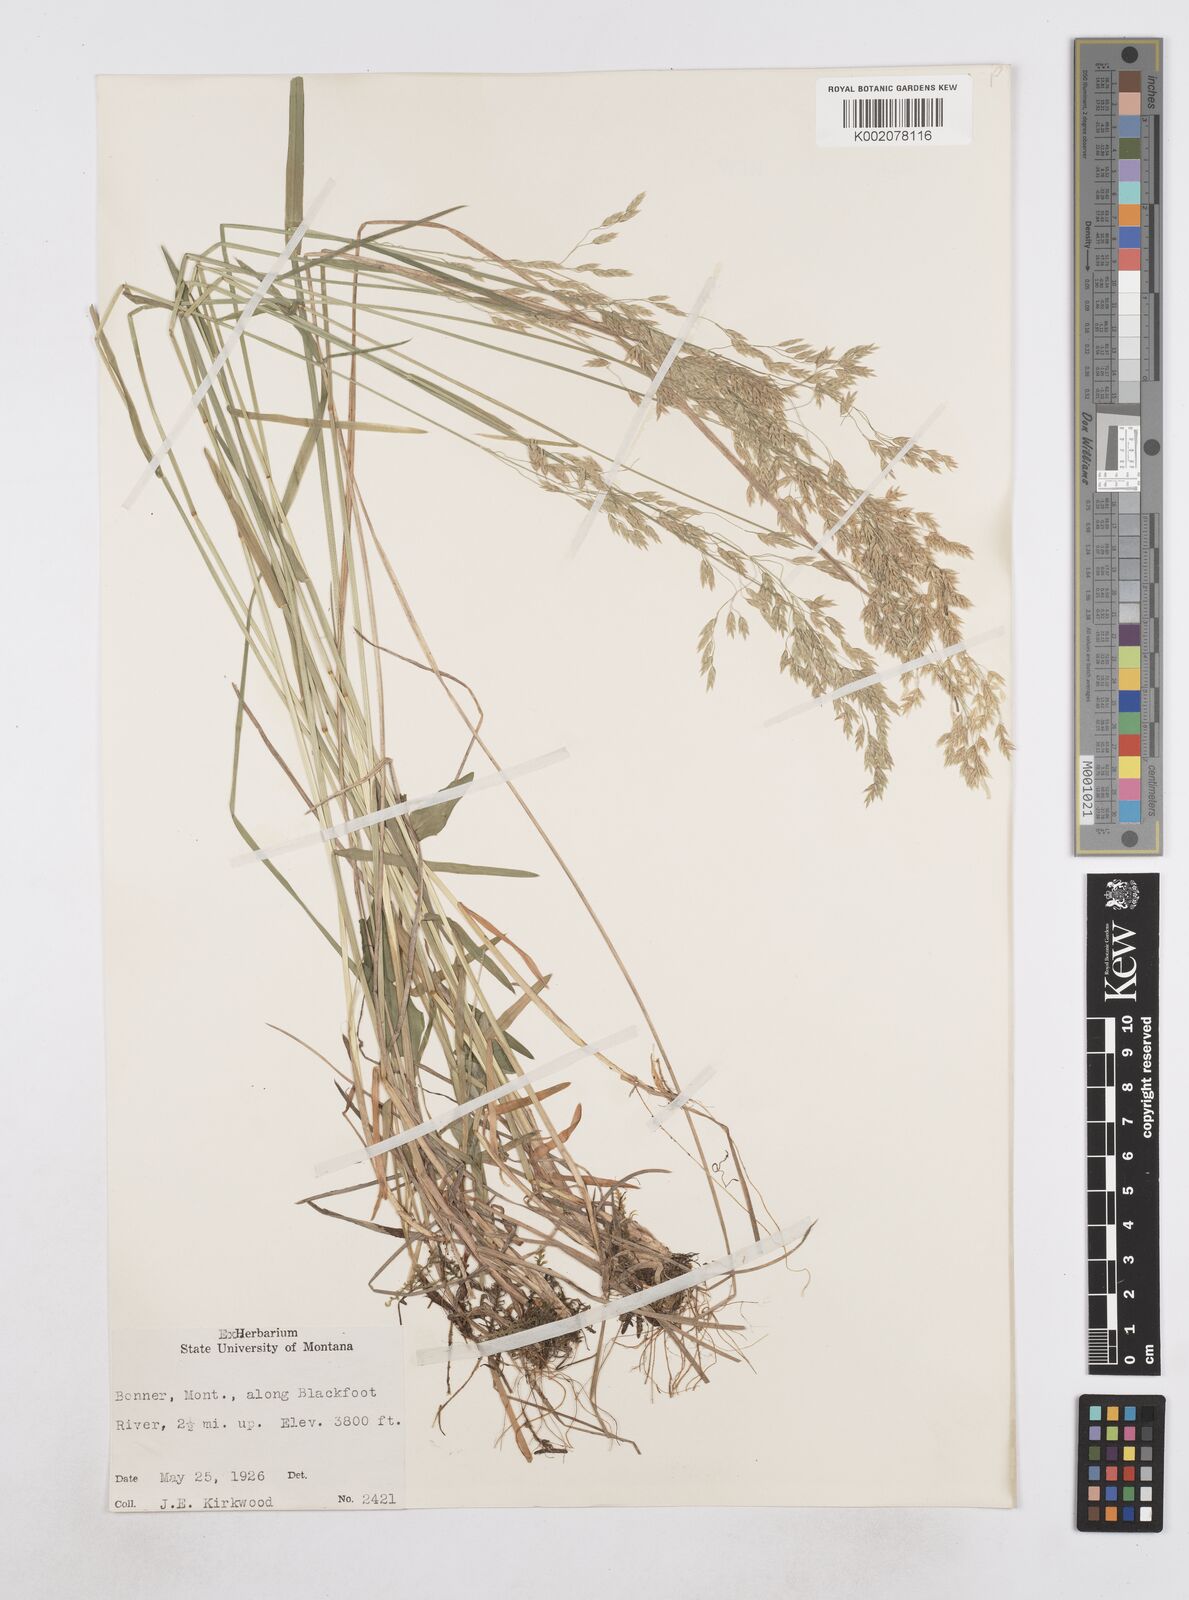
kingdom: Plantae
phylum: Tracheophyta
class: Liliopsida
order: Poales
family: Poaceae
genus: Poa
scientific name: Poa
